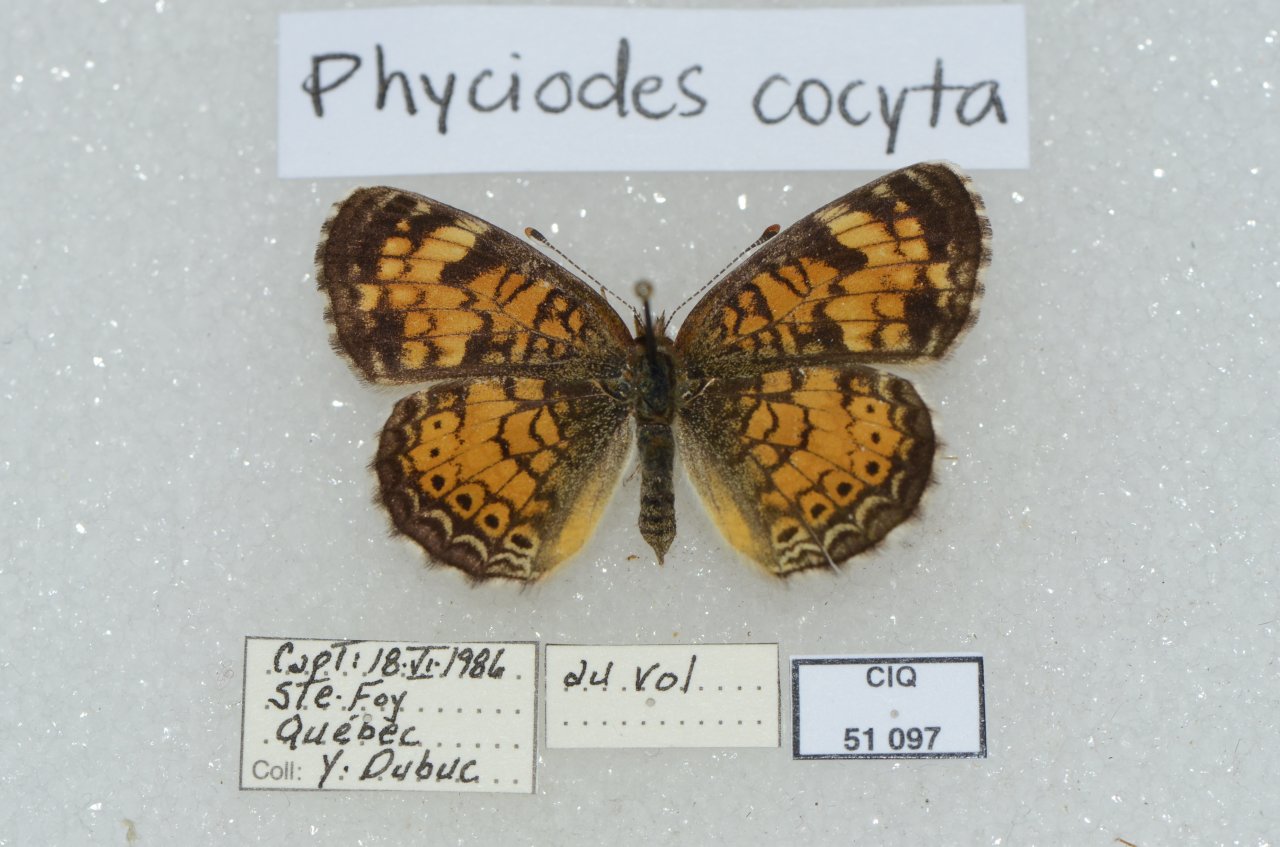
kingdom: Animalia
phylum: Arthropoda
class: Insecta
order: Lepidoptera
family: Nymphalidae
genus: Phyciodes
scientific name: Phyciodes tharos
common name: Northern Crescent
